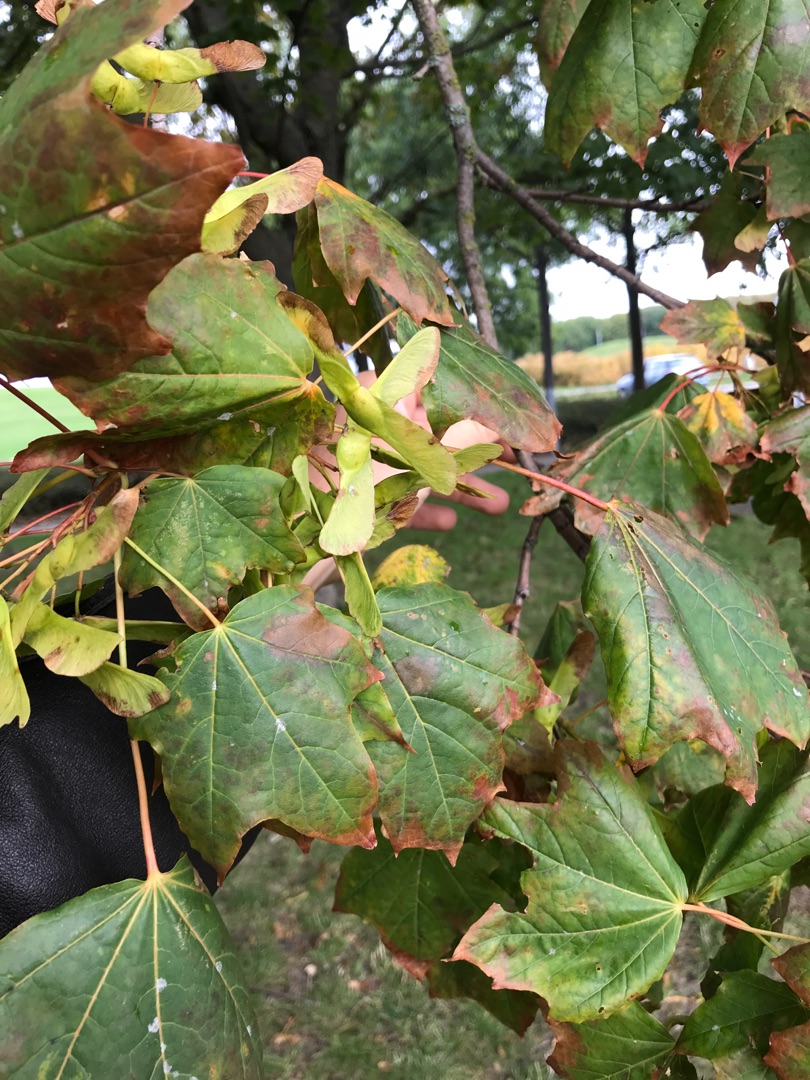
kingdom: Plantae
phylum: Tracheophyta
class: Magnoliopsida
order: Sapindales
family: Sapindaceae
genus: Acer
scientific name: Acer pseudoplatanus
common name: Ahorn
